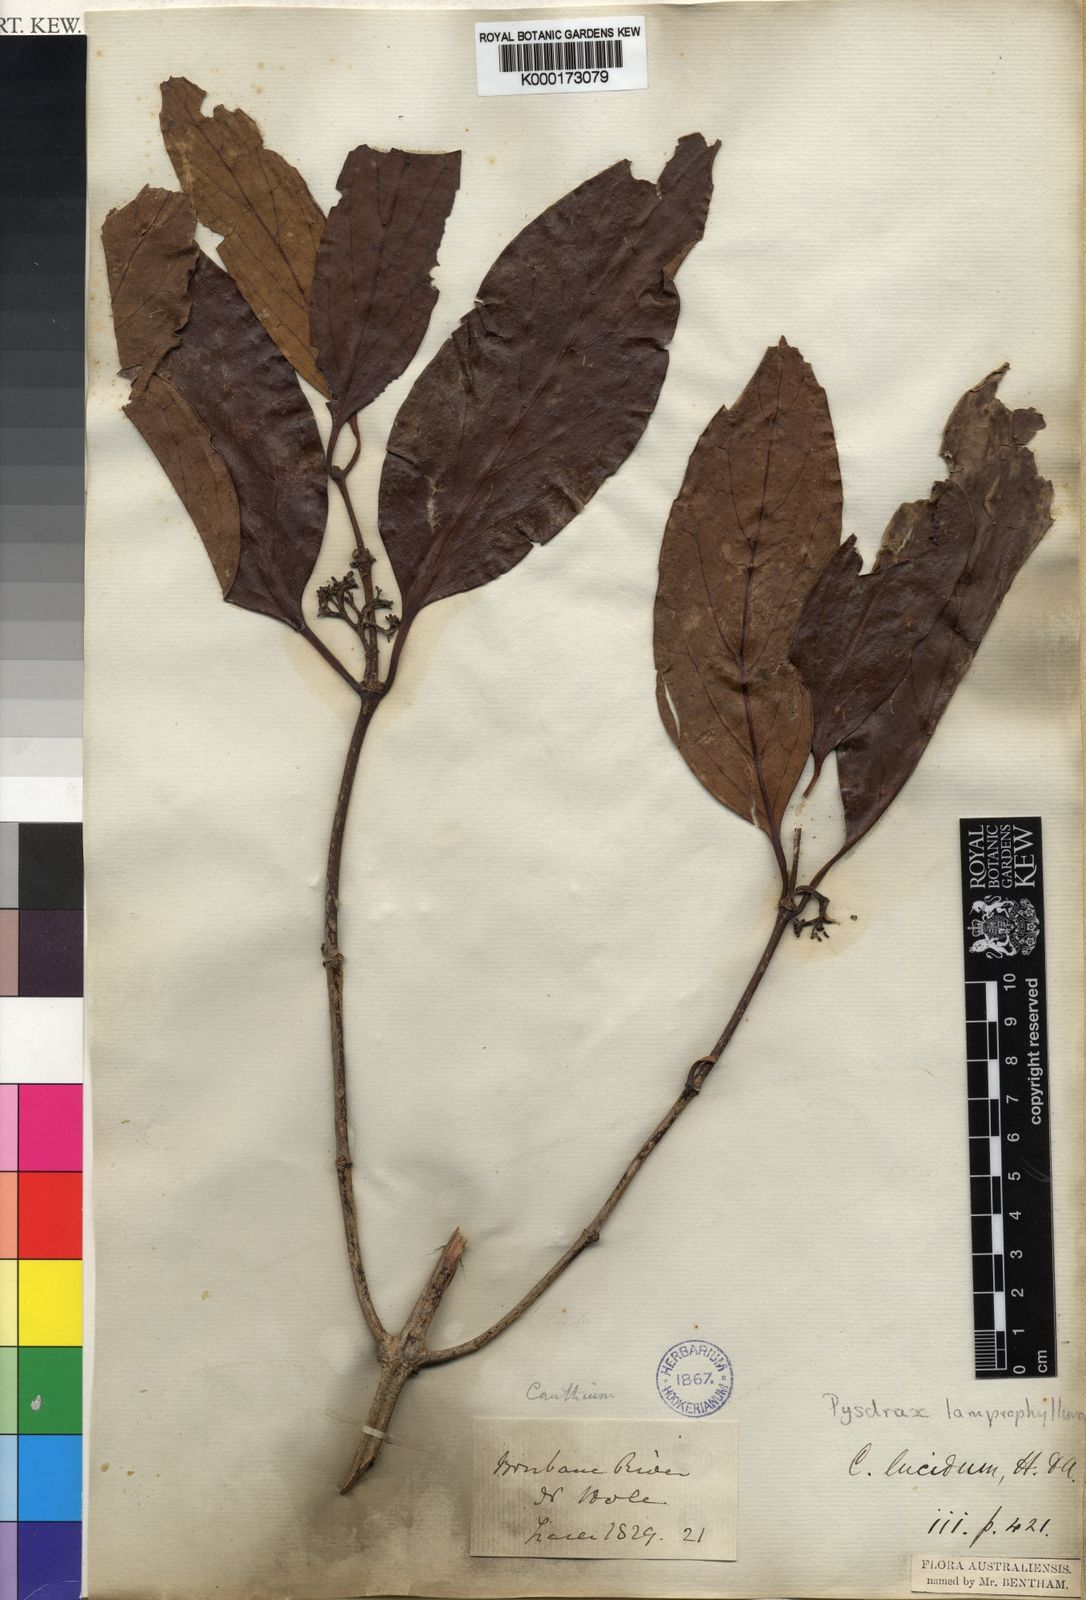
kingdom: Plantae
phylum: Tracheophyta
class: Magnoliopsida
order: Gentianales
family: Rubiaceae
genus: Psydrax
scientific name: Psydrax lamprophyllus
